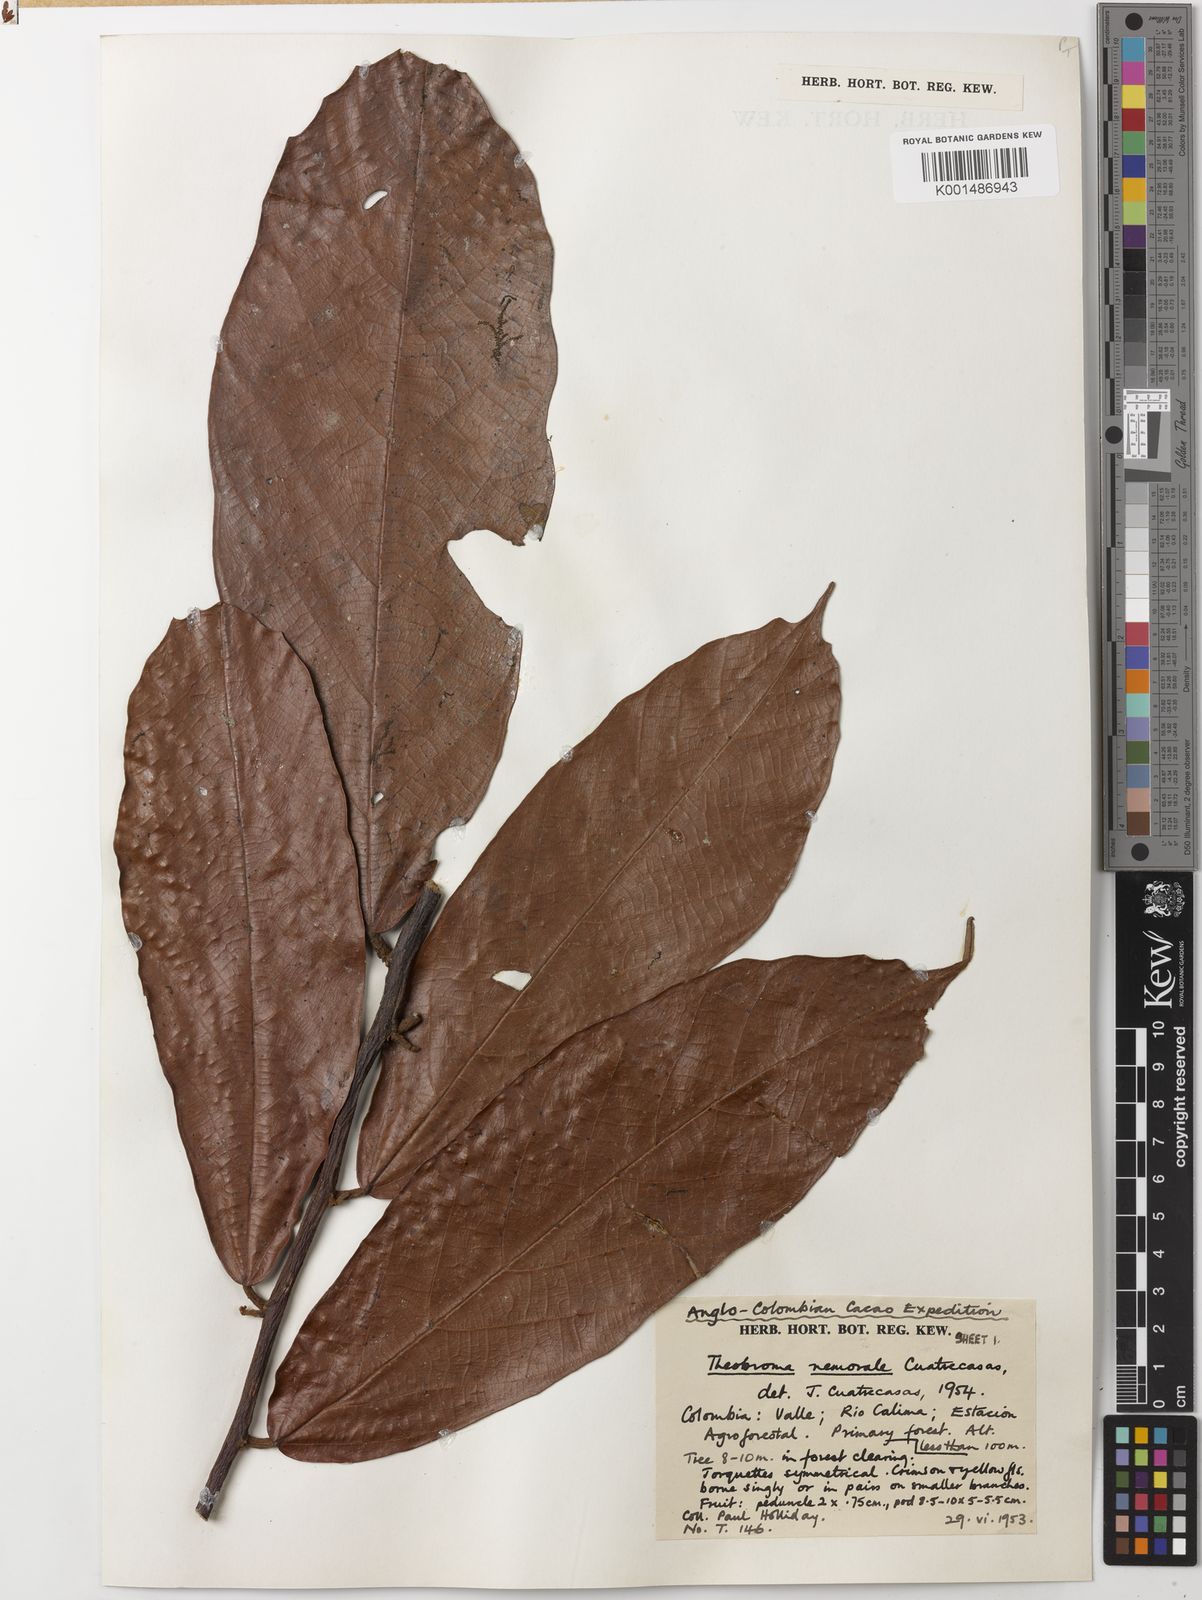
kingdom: Plantae
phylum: Tracheophyta
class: Magnoliopsida
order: Malvales
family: Malvaceae
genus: Theobroma
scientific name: Theobroma nemorale
